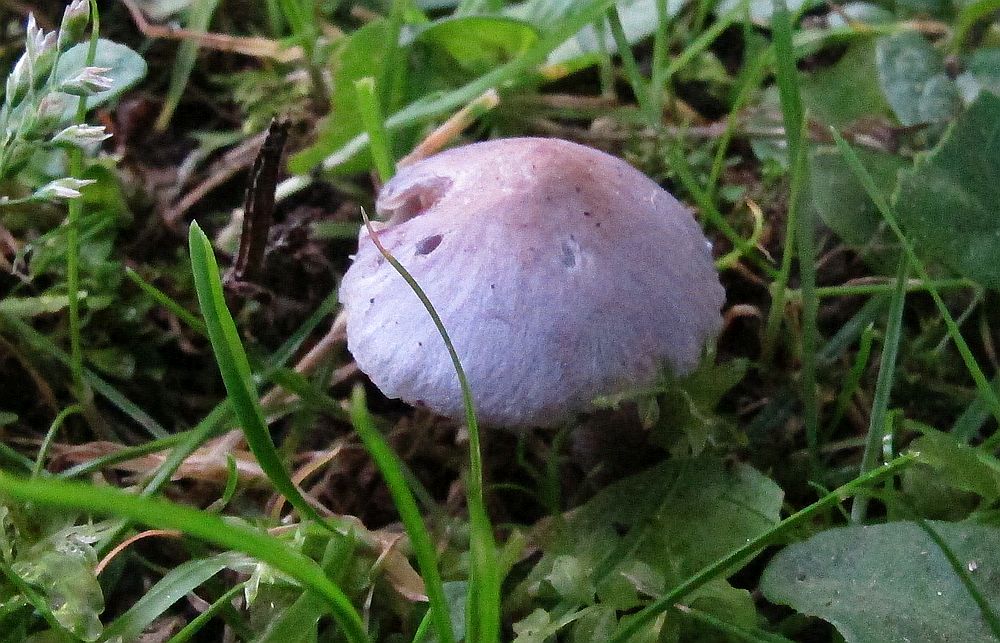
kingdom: Fungi
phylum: Basidiomycota
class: Agaricomycetes
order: Agaricales
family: Inocybaceae
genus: Inocybe
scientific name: Inocybe geophylla
